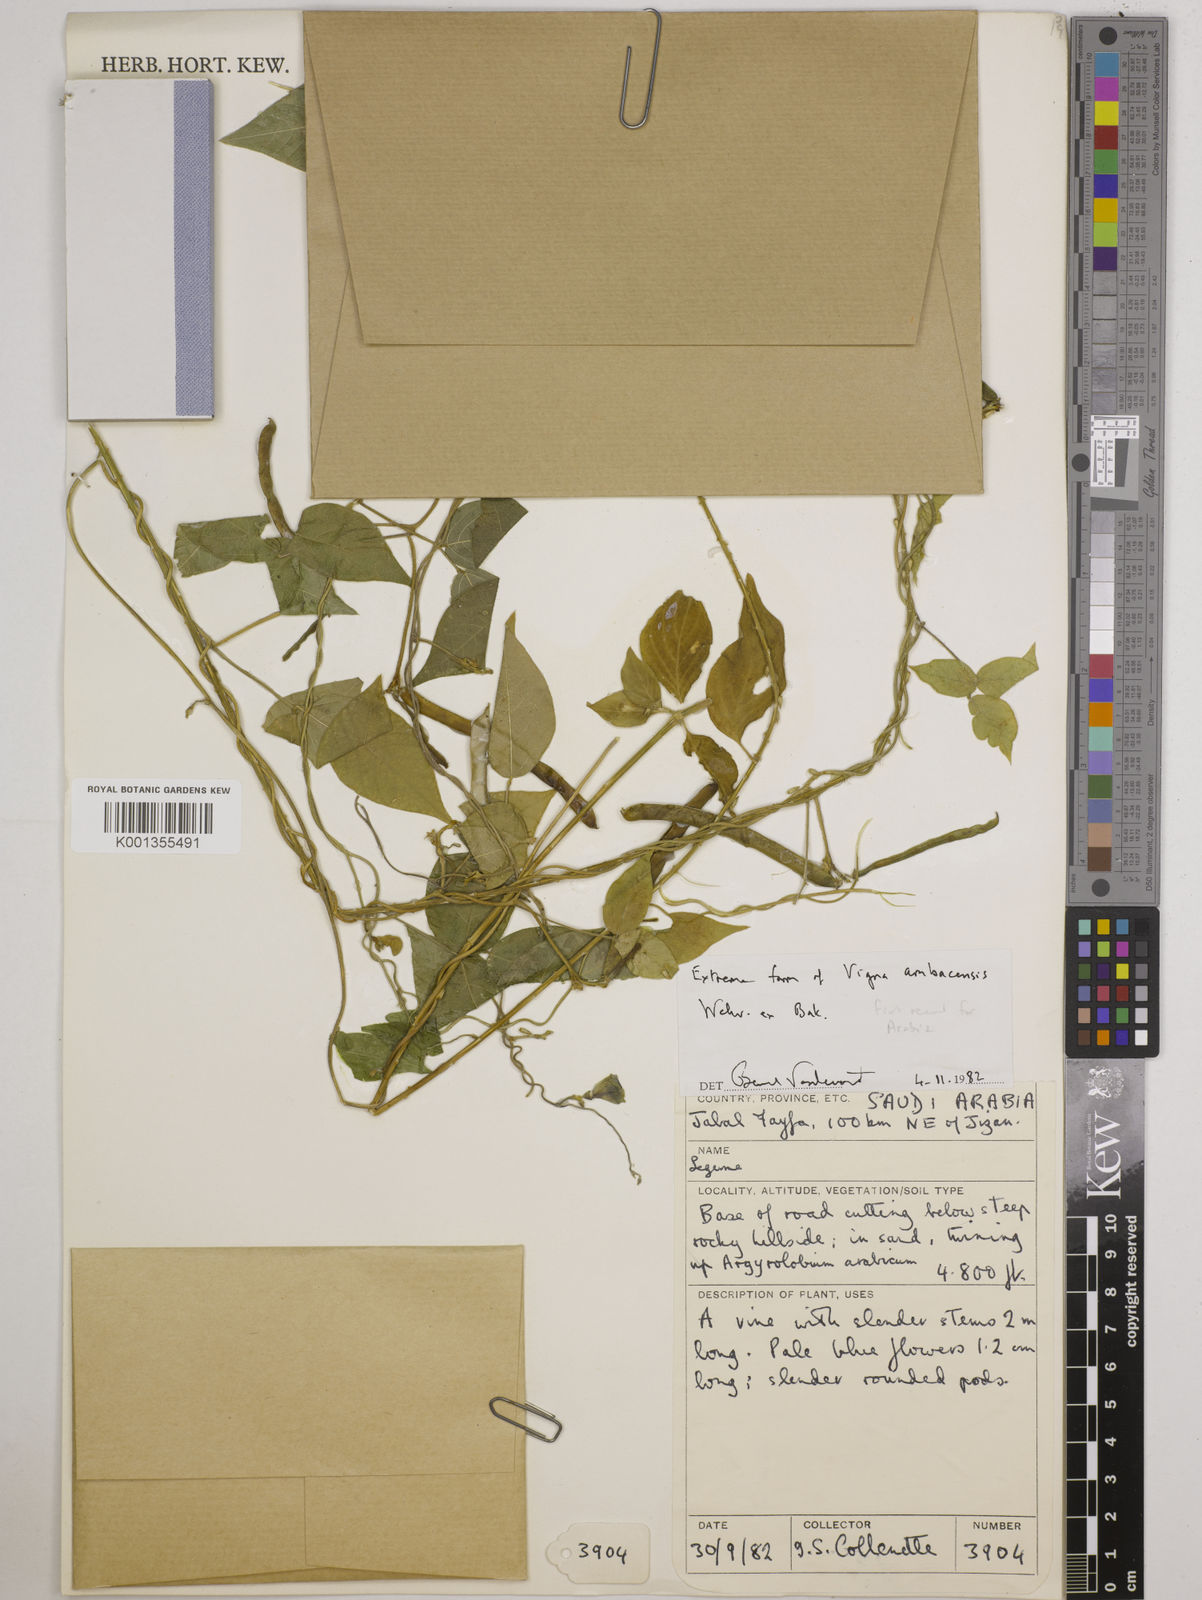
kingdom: Plantae
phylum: Tracheophyta
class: Magnoliopsida
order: Fabales
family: Fabaceae
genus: Vigna
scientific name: Vigna ambacensis
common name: Tsarkiyan zomo
